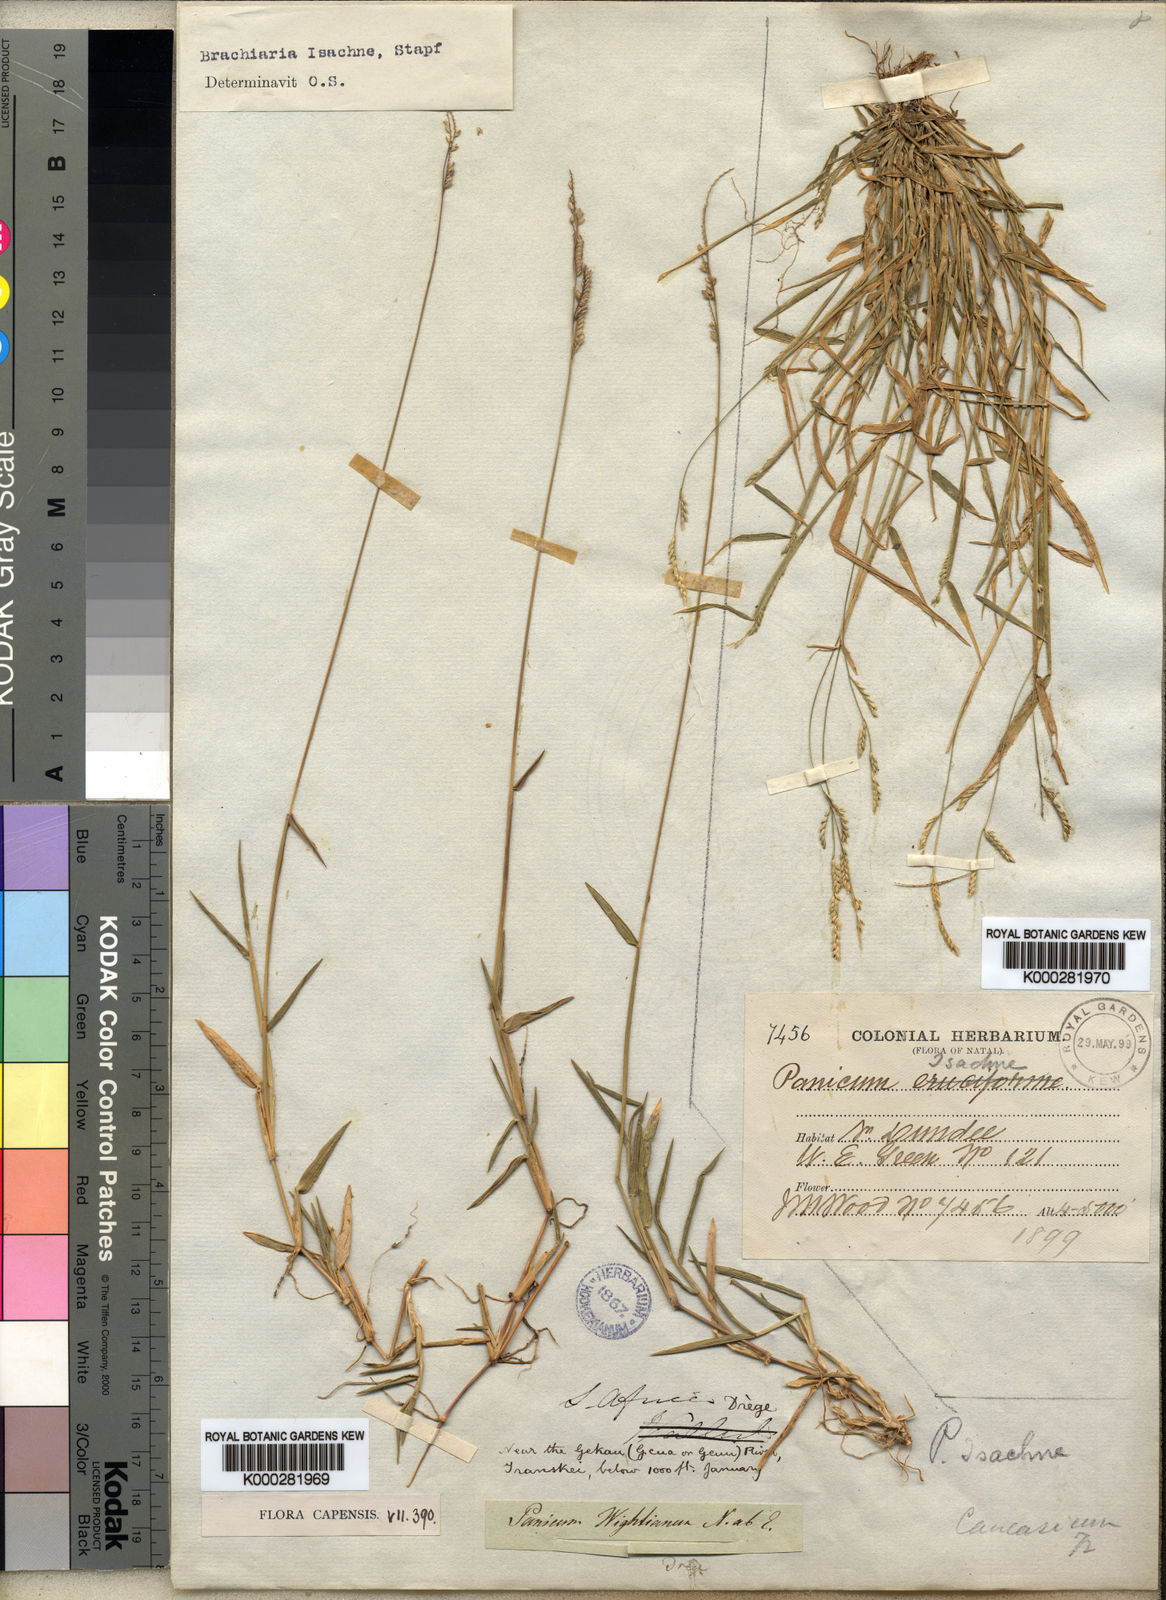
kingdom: Plantae
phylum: Tracheophyta
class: Liliopsida
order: Poales
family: Poaceae
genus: Moorochloa
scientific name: Moorochloa eruciformis
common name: Sweet signalgrass
